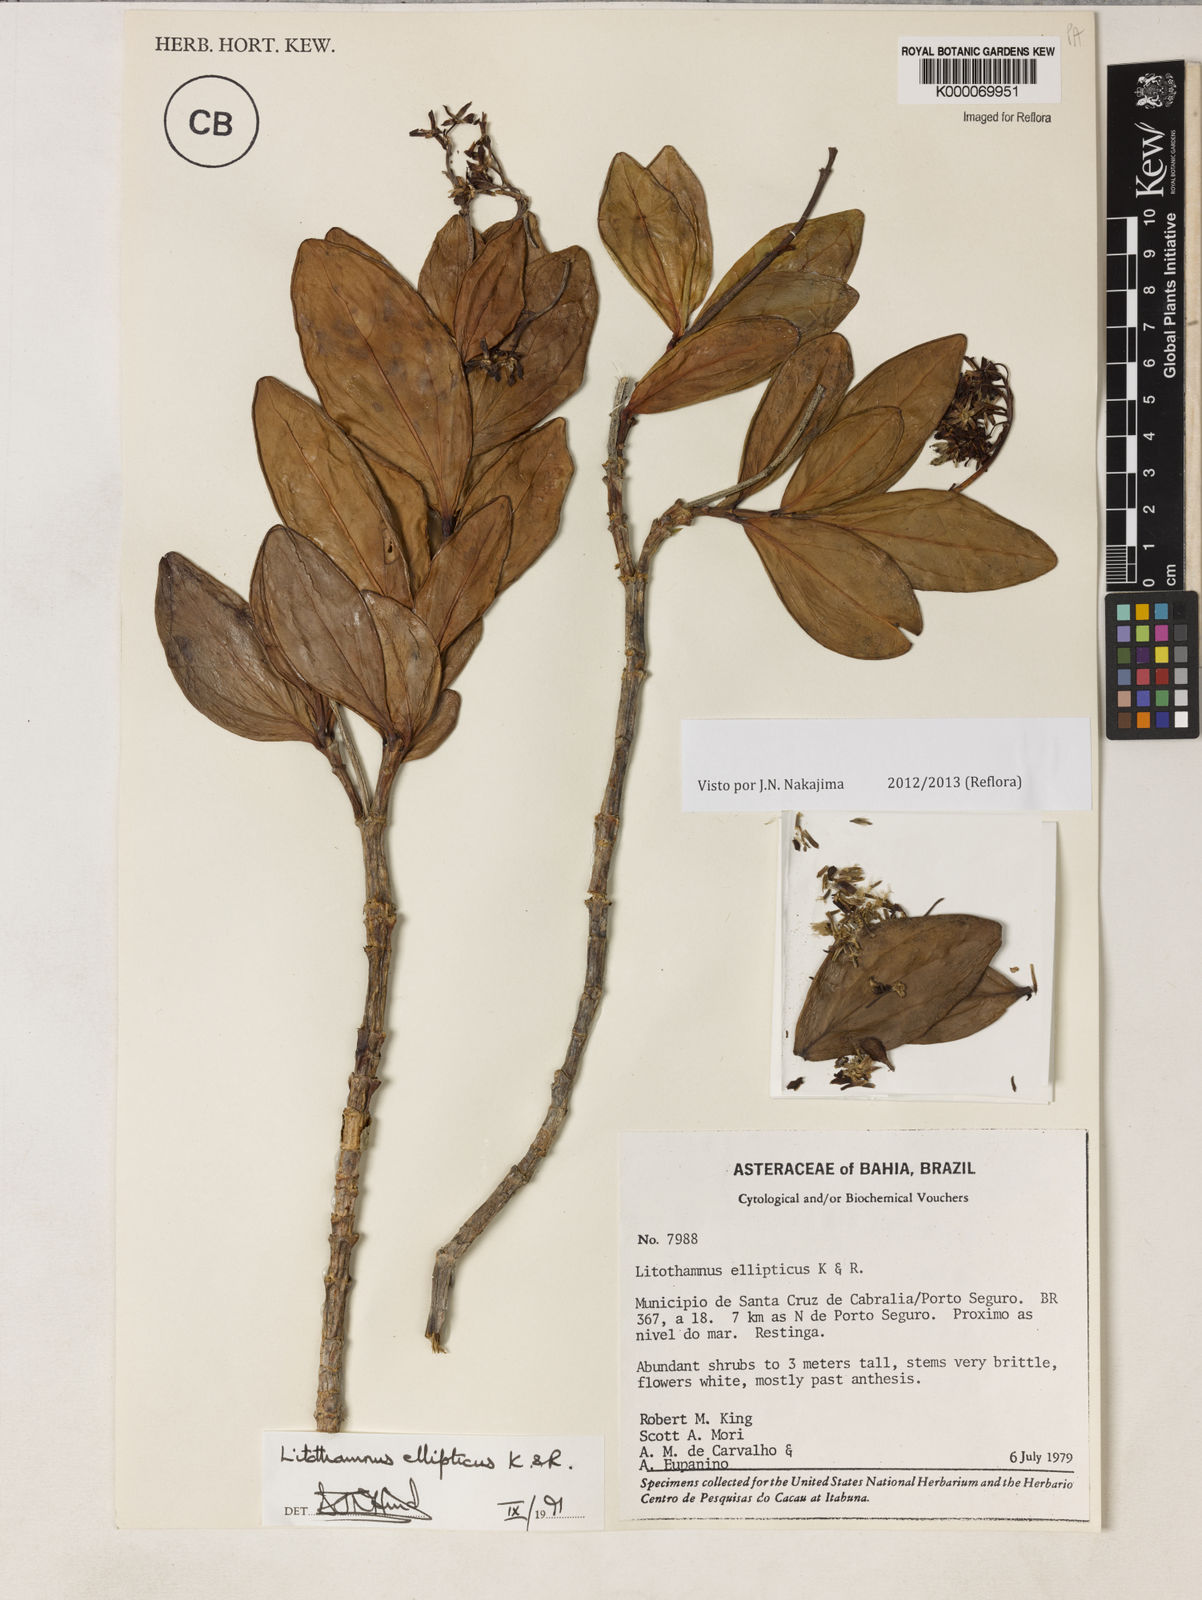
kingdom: Plantae
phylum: Tracheophyta
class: Magnoliopsida
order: Asterales
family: Asteraceae
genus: Litothamnus
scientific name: Litothamnus ellipticus
